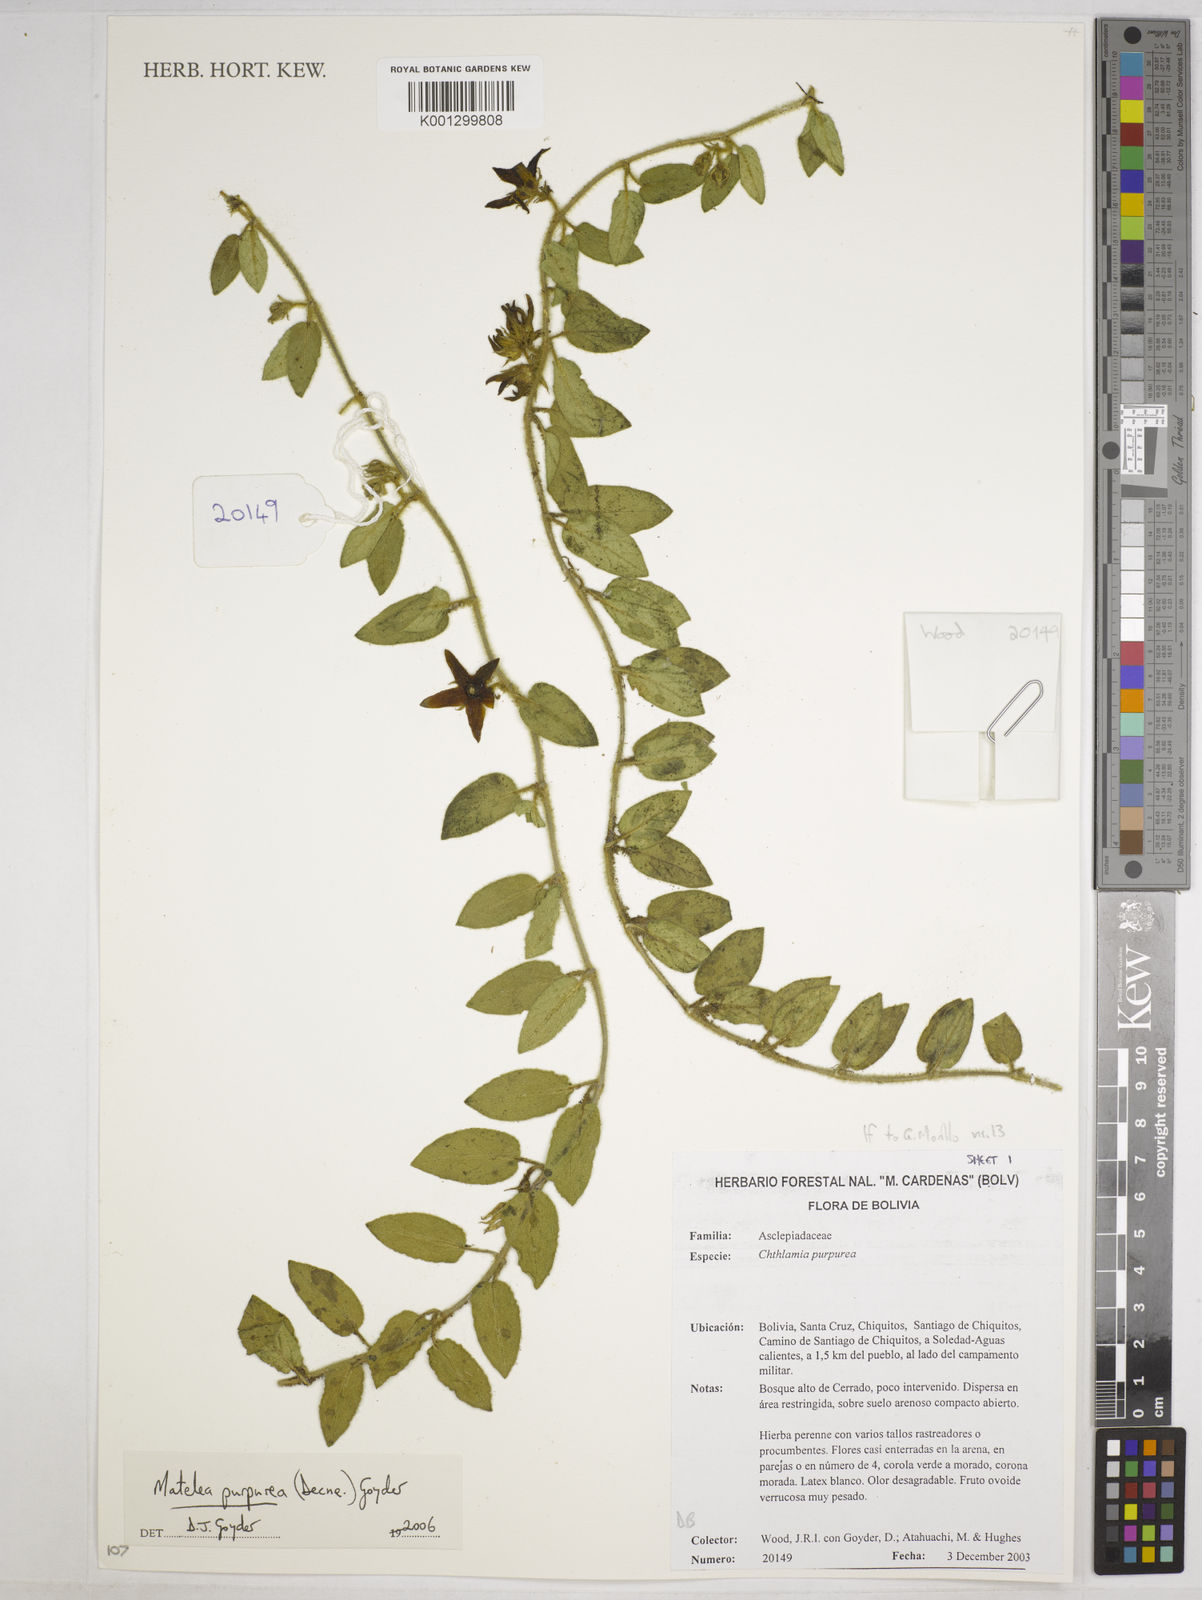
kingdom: Plantae
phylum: Tracheophyta
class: Magnoliopsida
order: Gentianales
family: Apocynaceae
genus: Austrochthamalia
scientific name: Austrochthamalia purpurea
